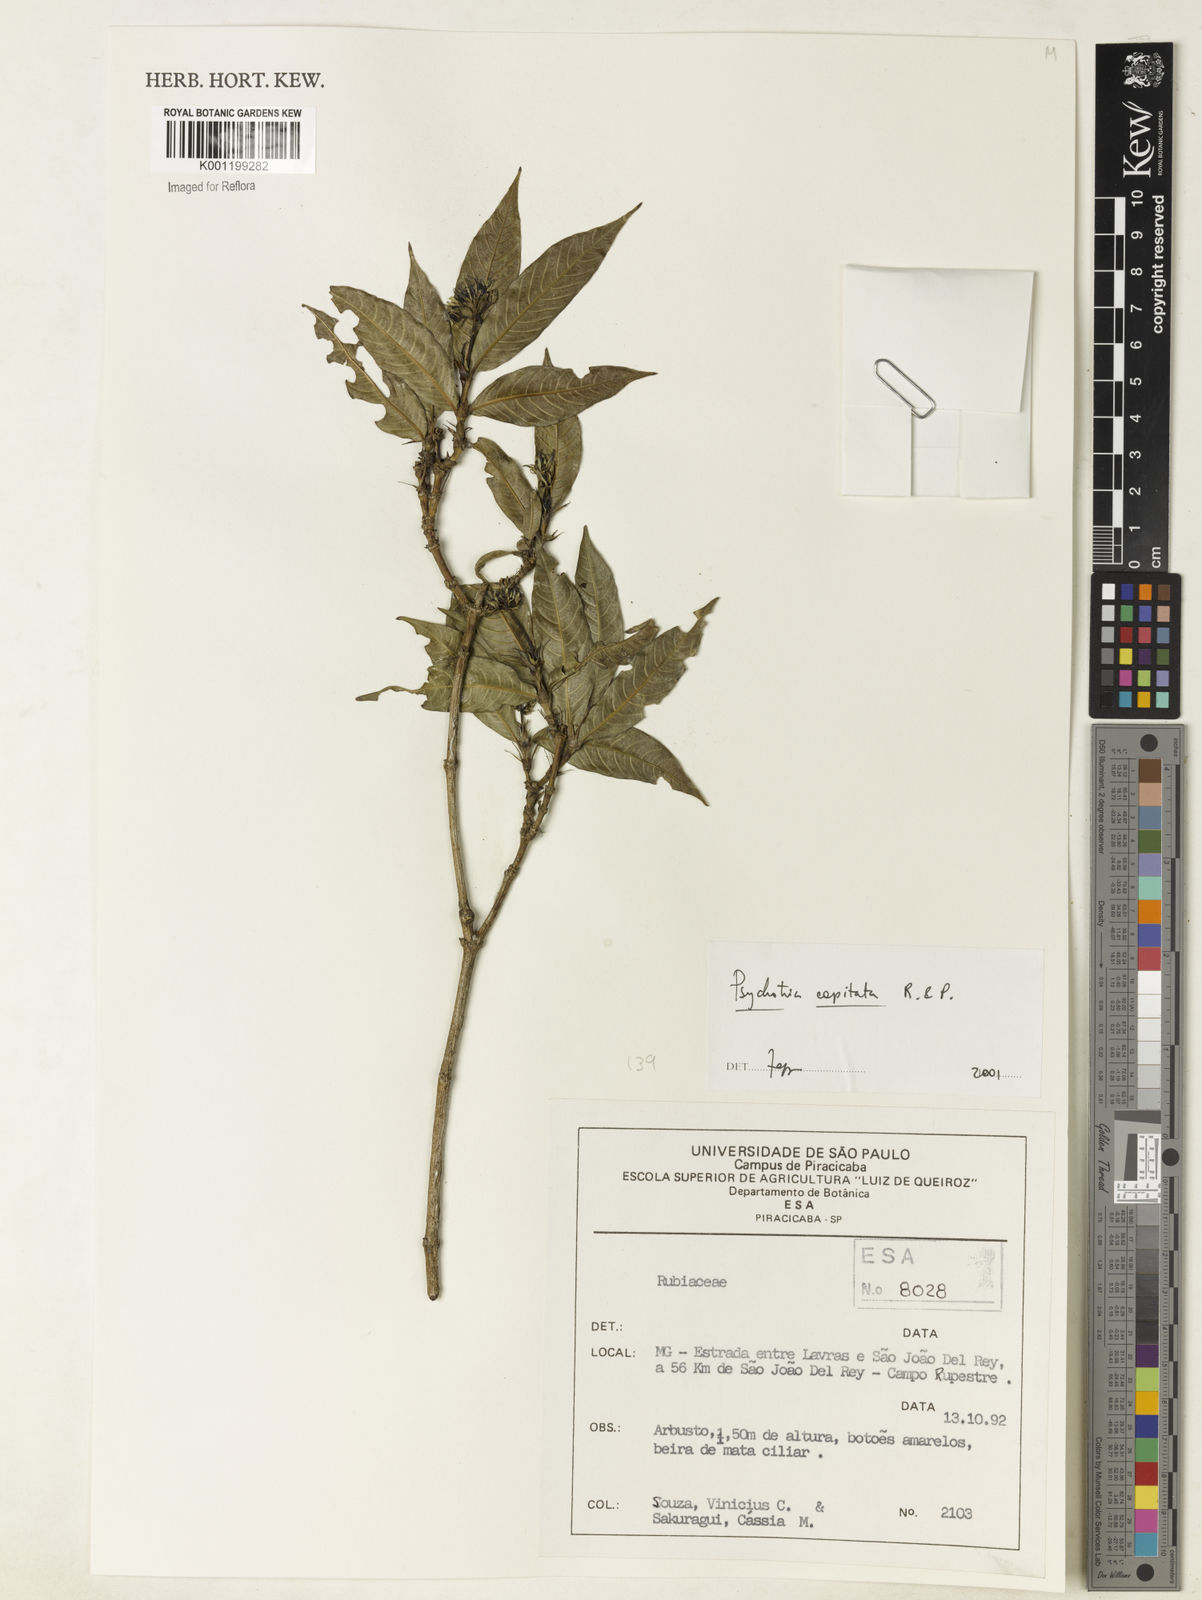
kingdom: Plantae
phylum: Tracheophyta
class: Magnoliopsida
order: Gentianales
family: Rubiaceae
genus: Palicourea
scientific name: Palicourea violacea
